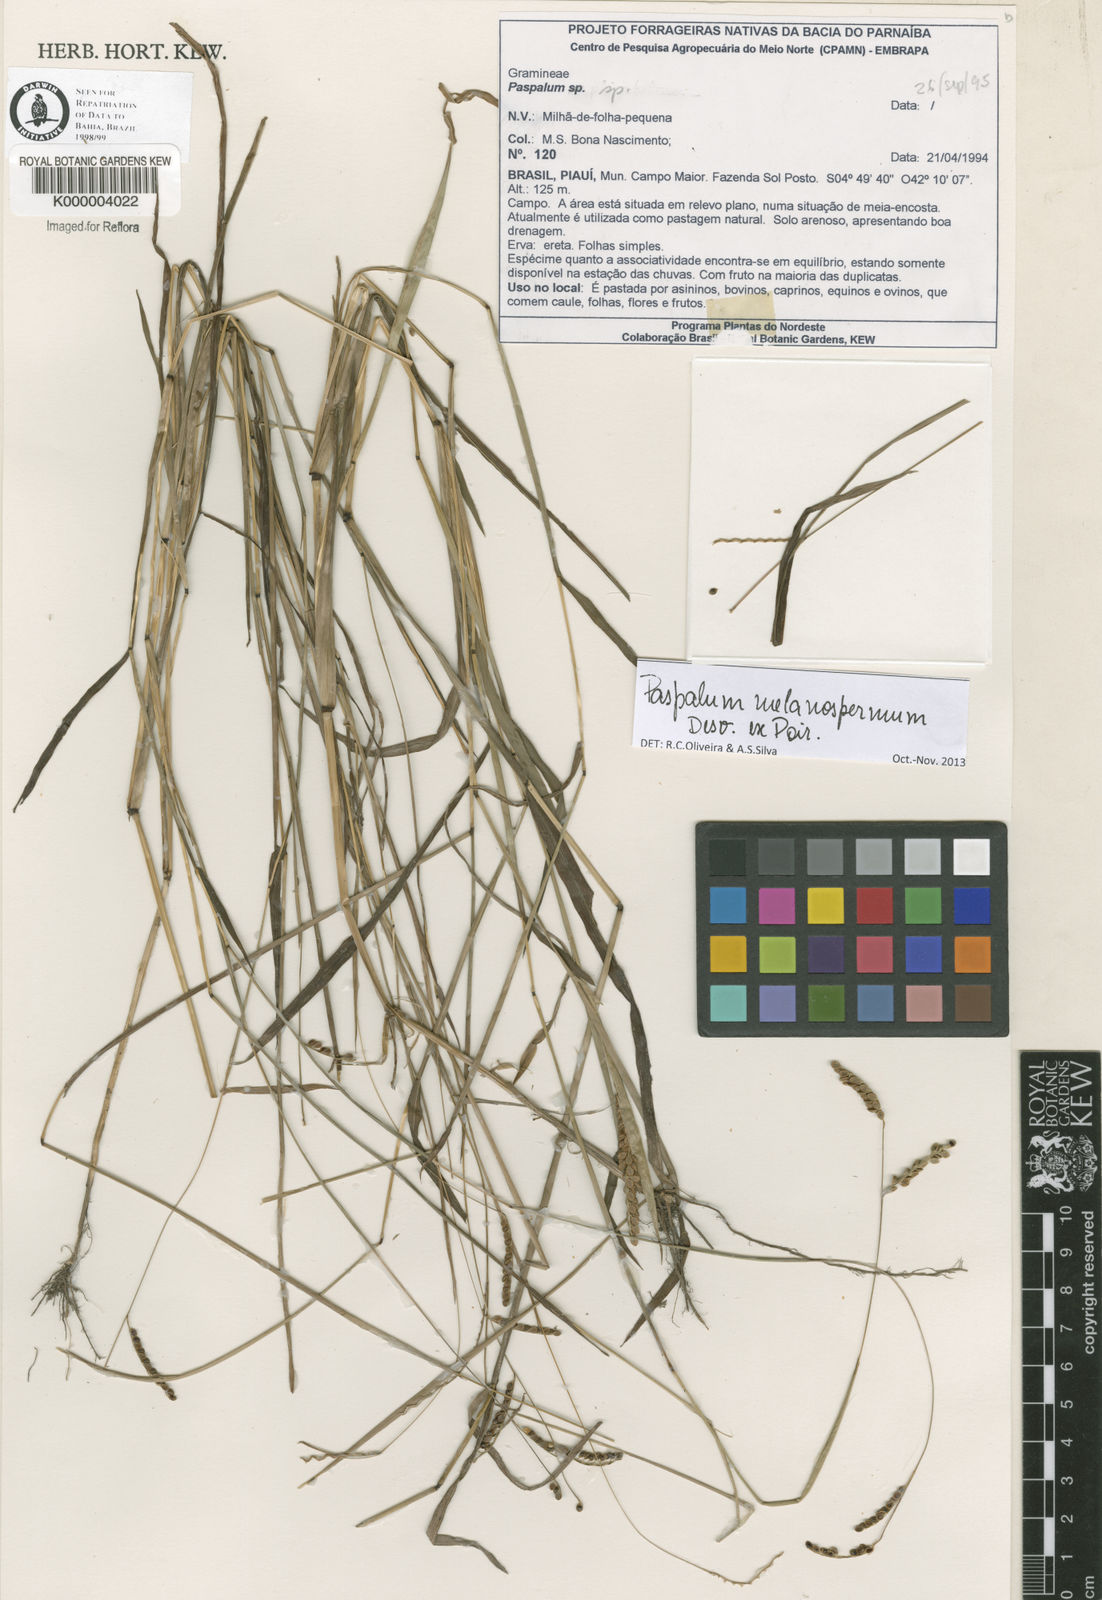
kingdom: Plantae
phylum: Tracheophyta
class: Liliopsida
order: Poales
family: Poaceae
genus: Paspalum
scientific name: Paspalum melanospermum
